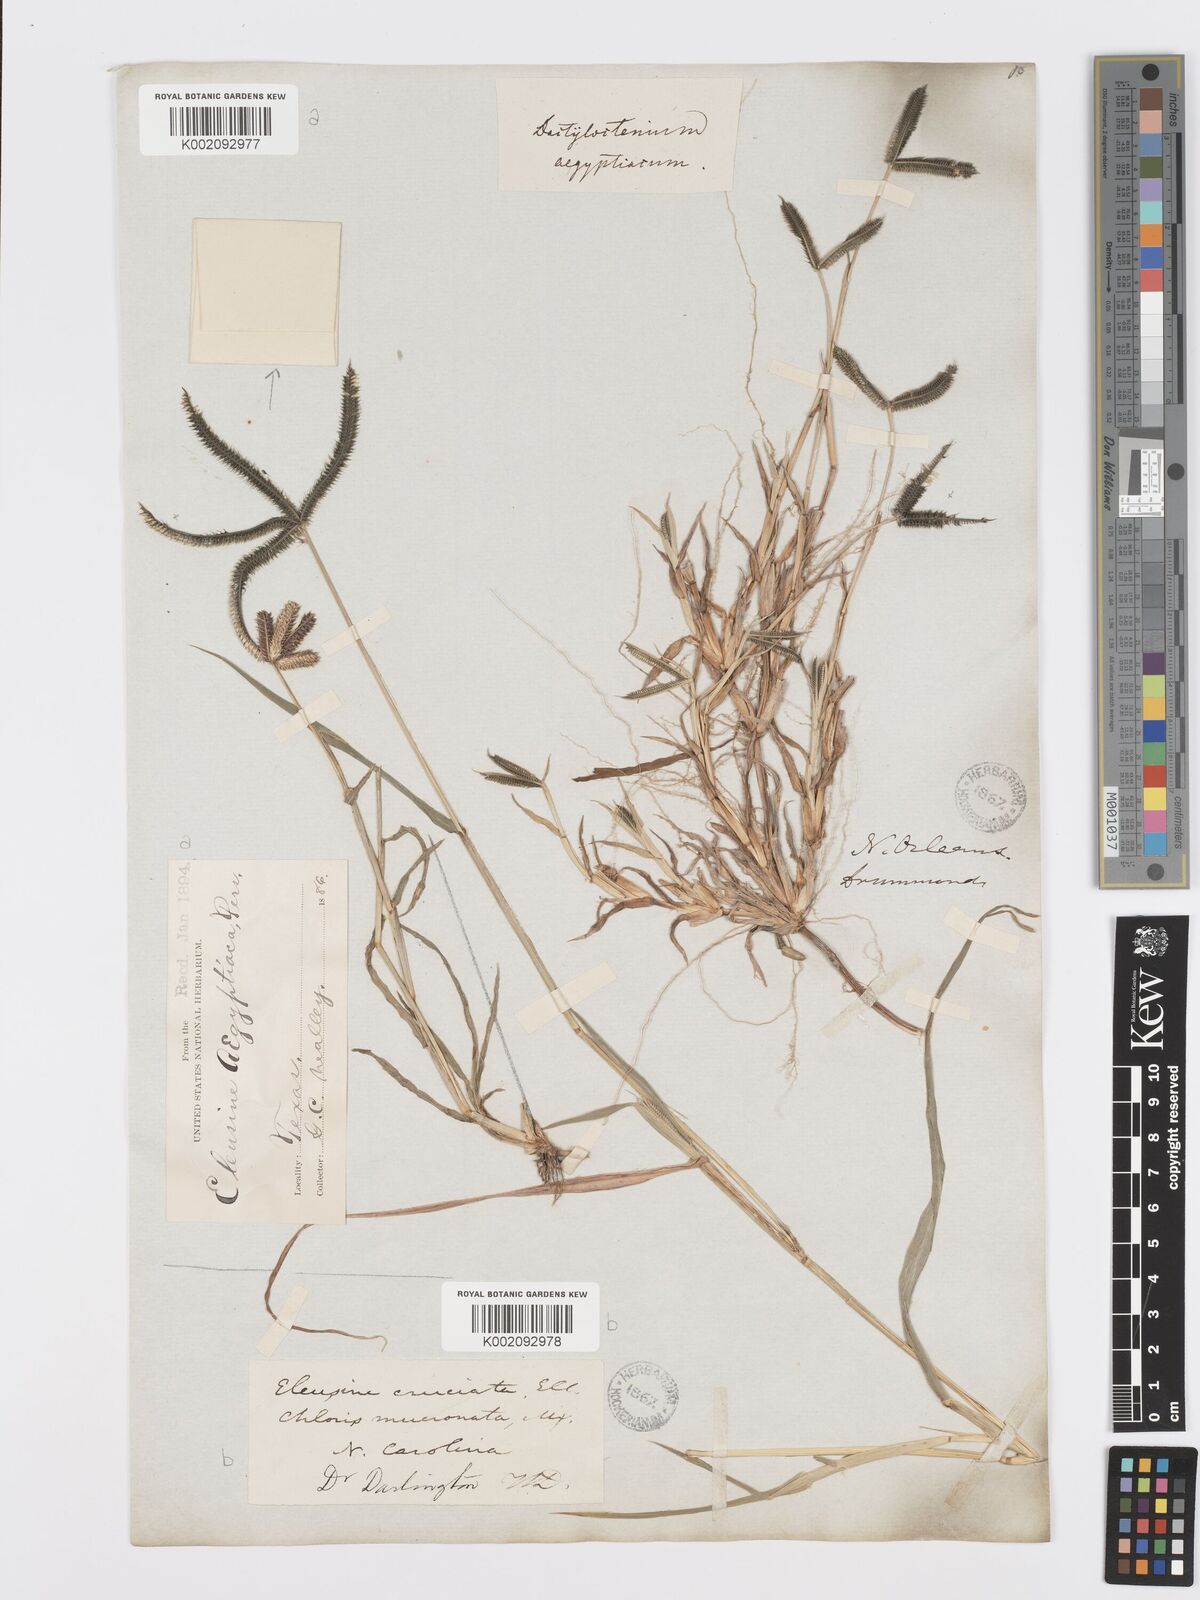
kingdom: Plantae
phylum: Tracheophyta
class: Liliopsida
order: Poales
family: Poaceae
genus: Dactyloctenium
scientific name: Dactyloctenium aegyptium
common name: Egyptian grass
